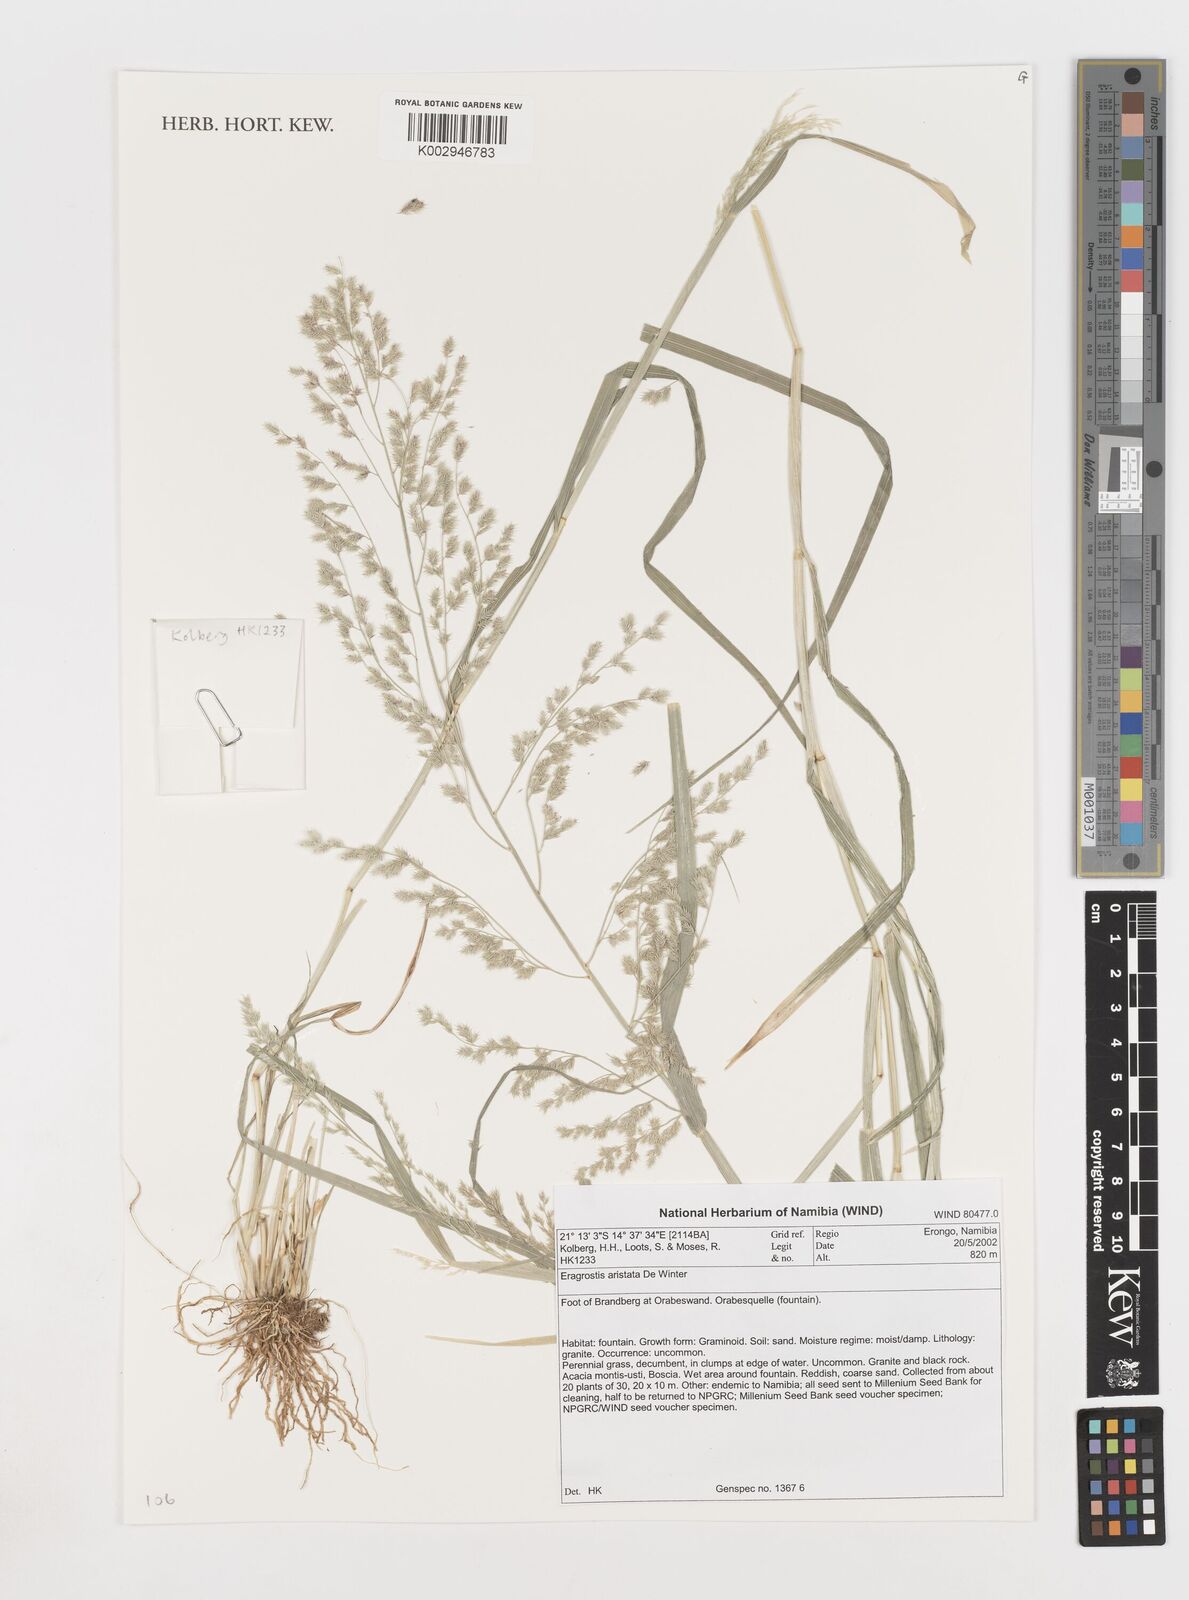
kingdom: Plantae
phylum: Tracheophyta
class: Liliopsida
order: Poales
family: Poaceae
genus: Eragrostis
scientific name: Eragrostis aristata
